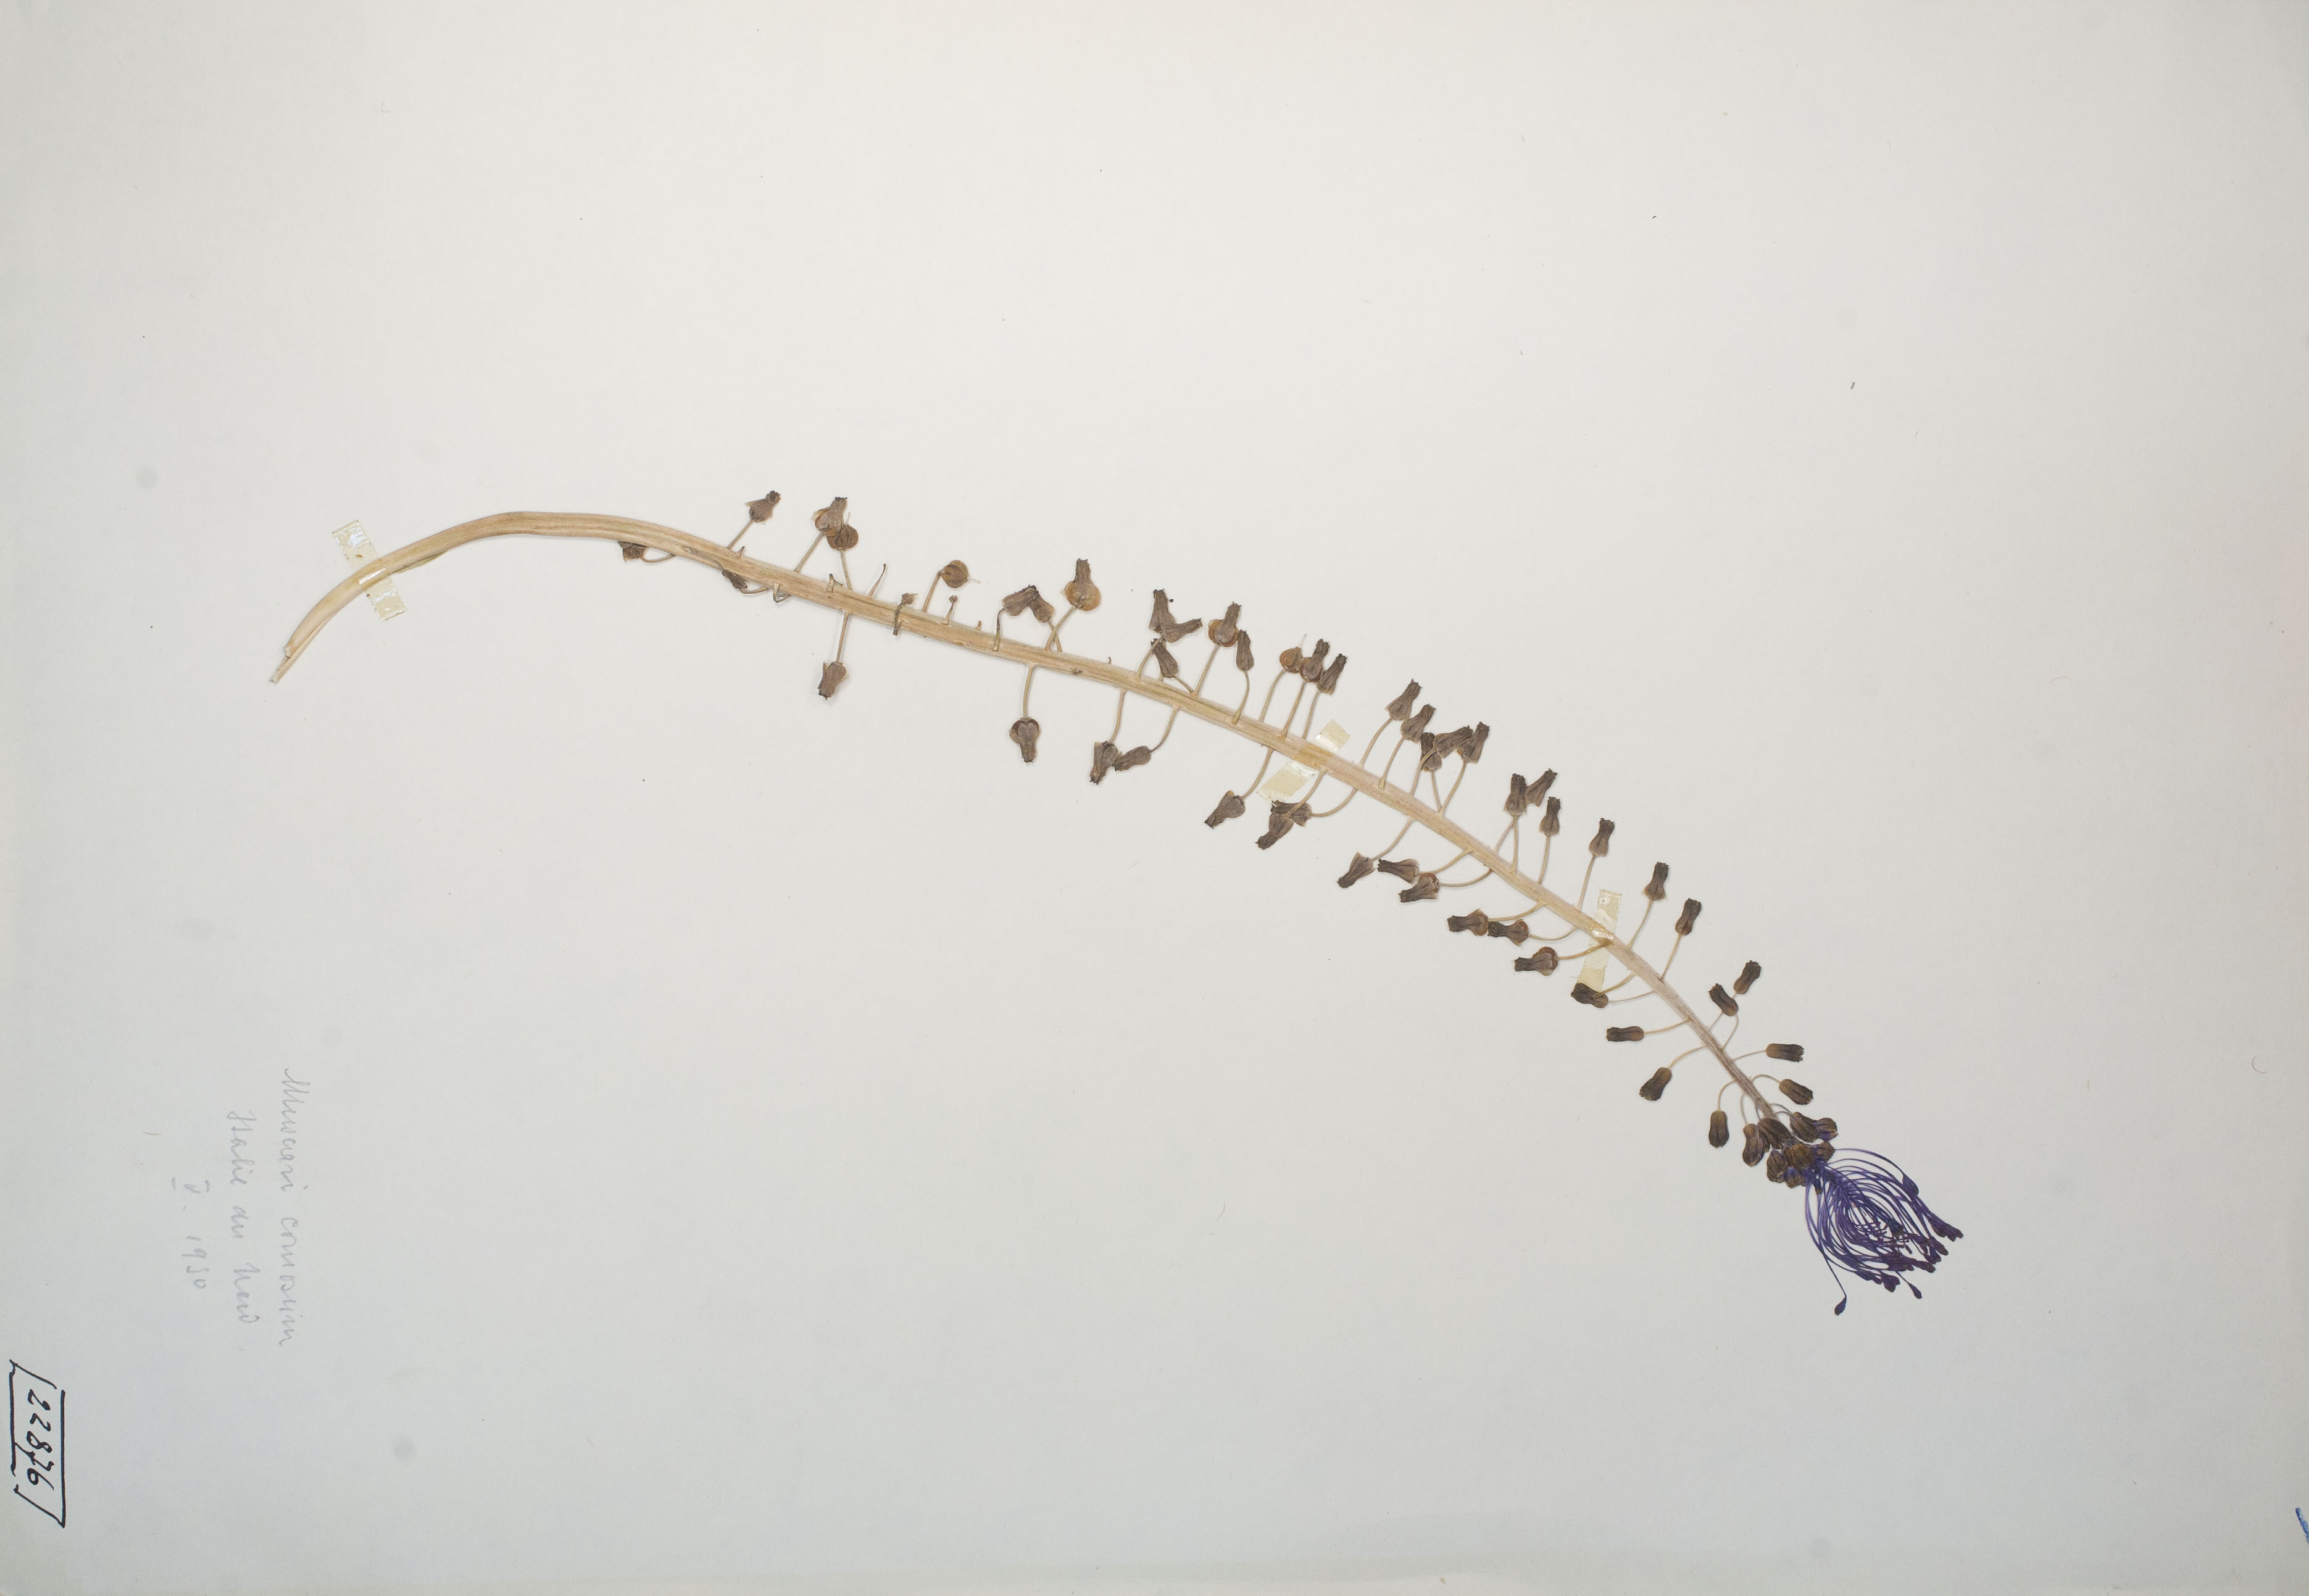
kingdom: Plantae
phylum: Tracheophyta
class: Liliopsida
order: Asparagales
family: Asparagaceae
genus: Muscari
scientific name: Muscari comosum
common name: Tassel hyacinth
